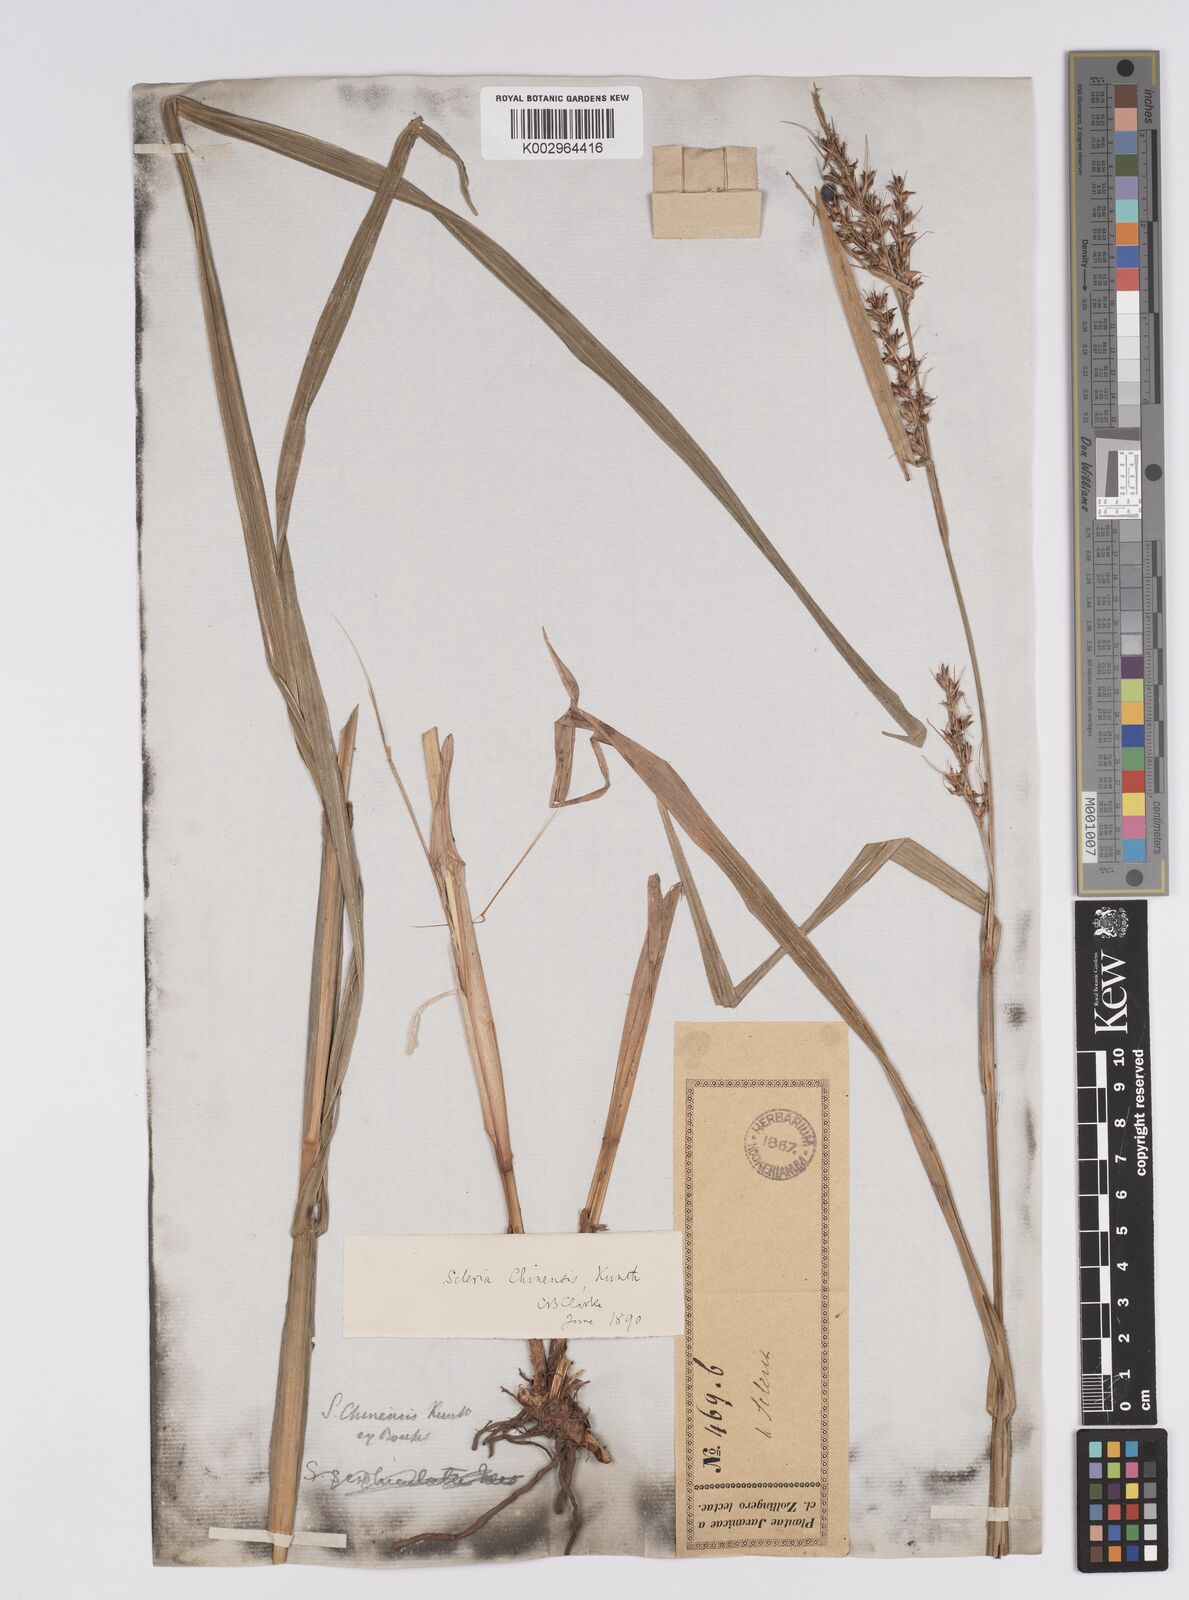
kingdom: Plantae
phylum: Tracheophyta
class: Liliopsida
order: Poales
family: Cyperaceae
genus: Scleria
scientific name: Scleria ciliaris
